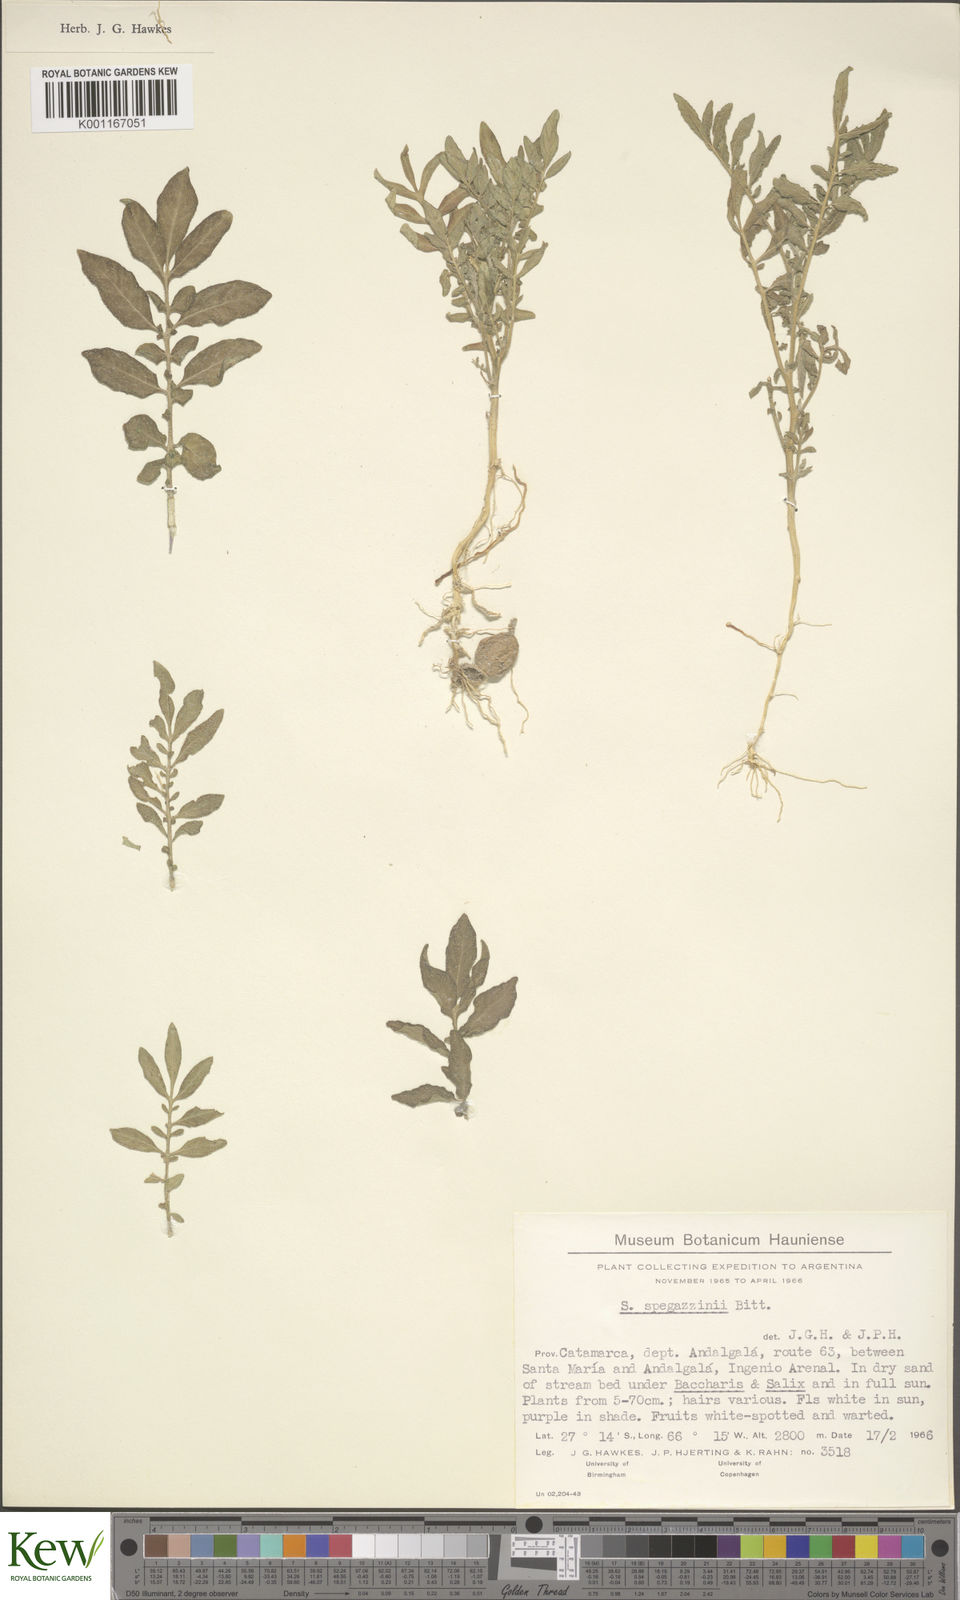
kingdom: Plantae
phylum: Tracheophyta
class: Magnoliopsida
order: Solanales
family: Solanaceae
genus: Solanum
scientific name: Solanum brevicaule
